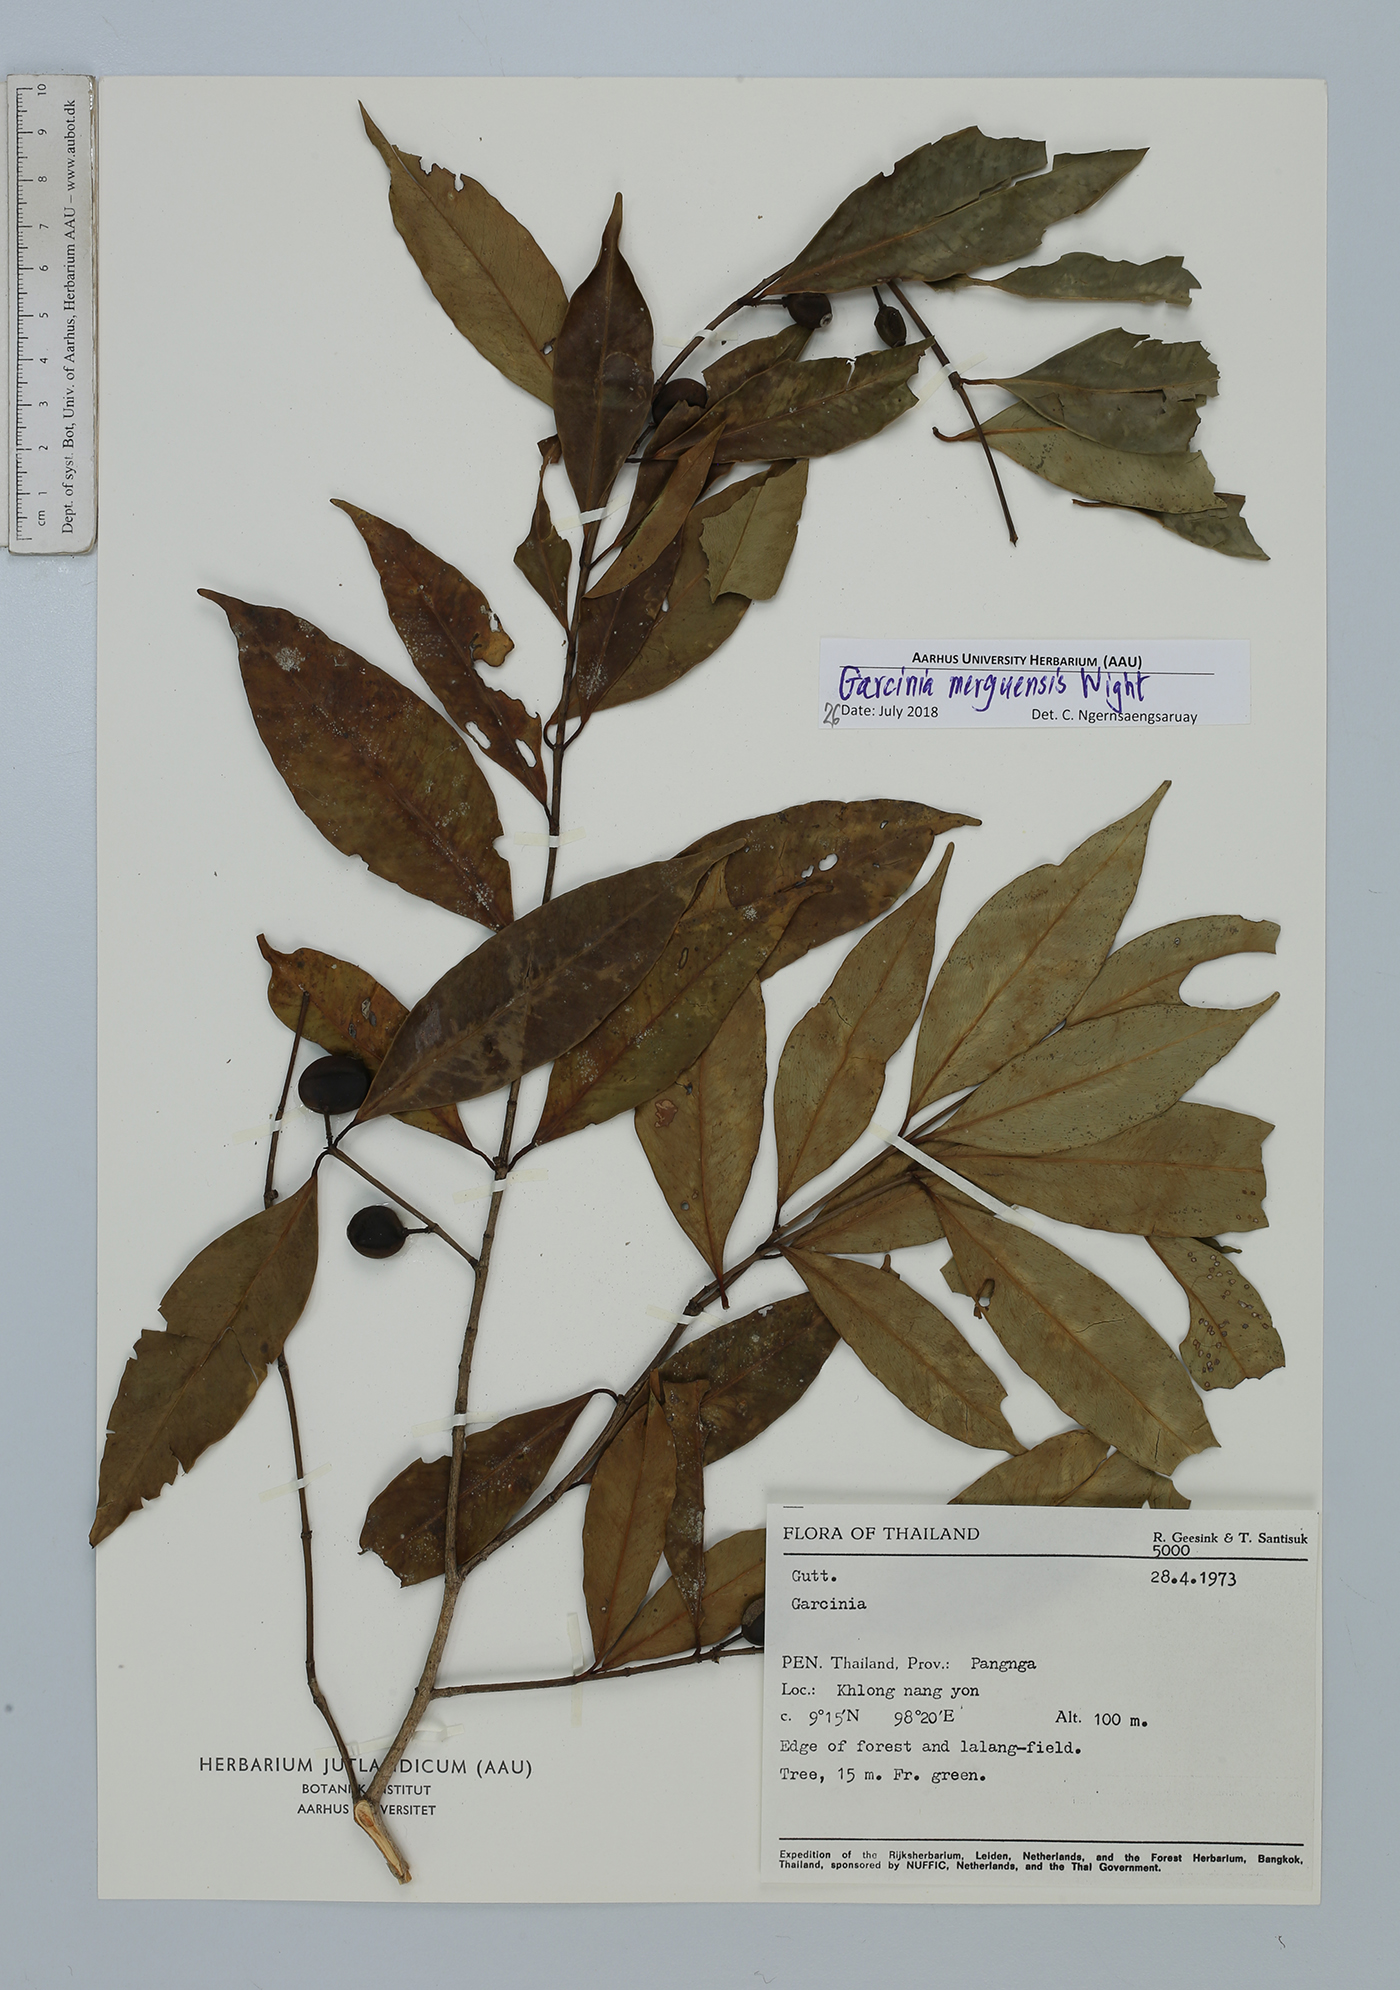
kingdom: Plantae
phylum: Tracheophyta
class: Magnoliopsida
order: Malpighiales
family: Clusiaceae
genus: Garcinia
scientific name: Garcinia merguensis
